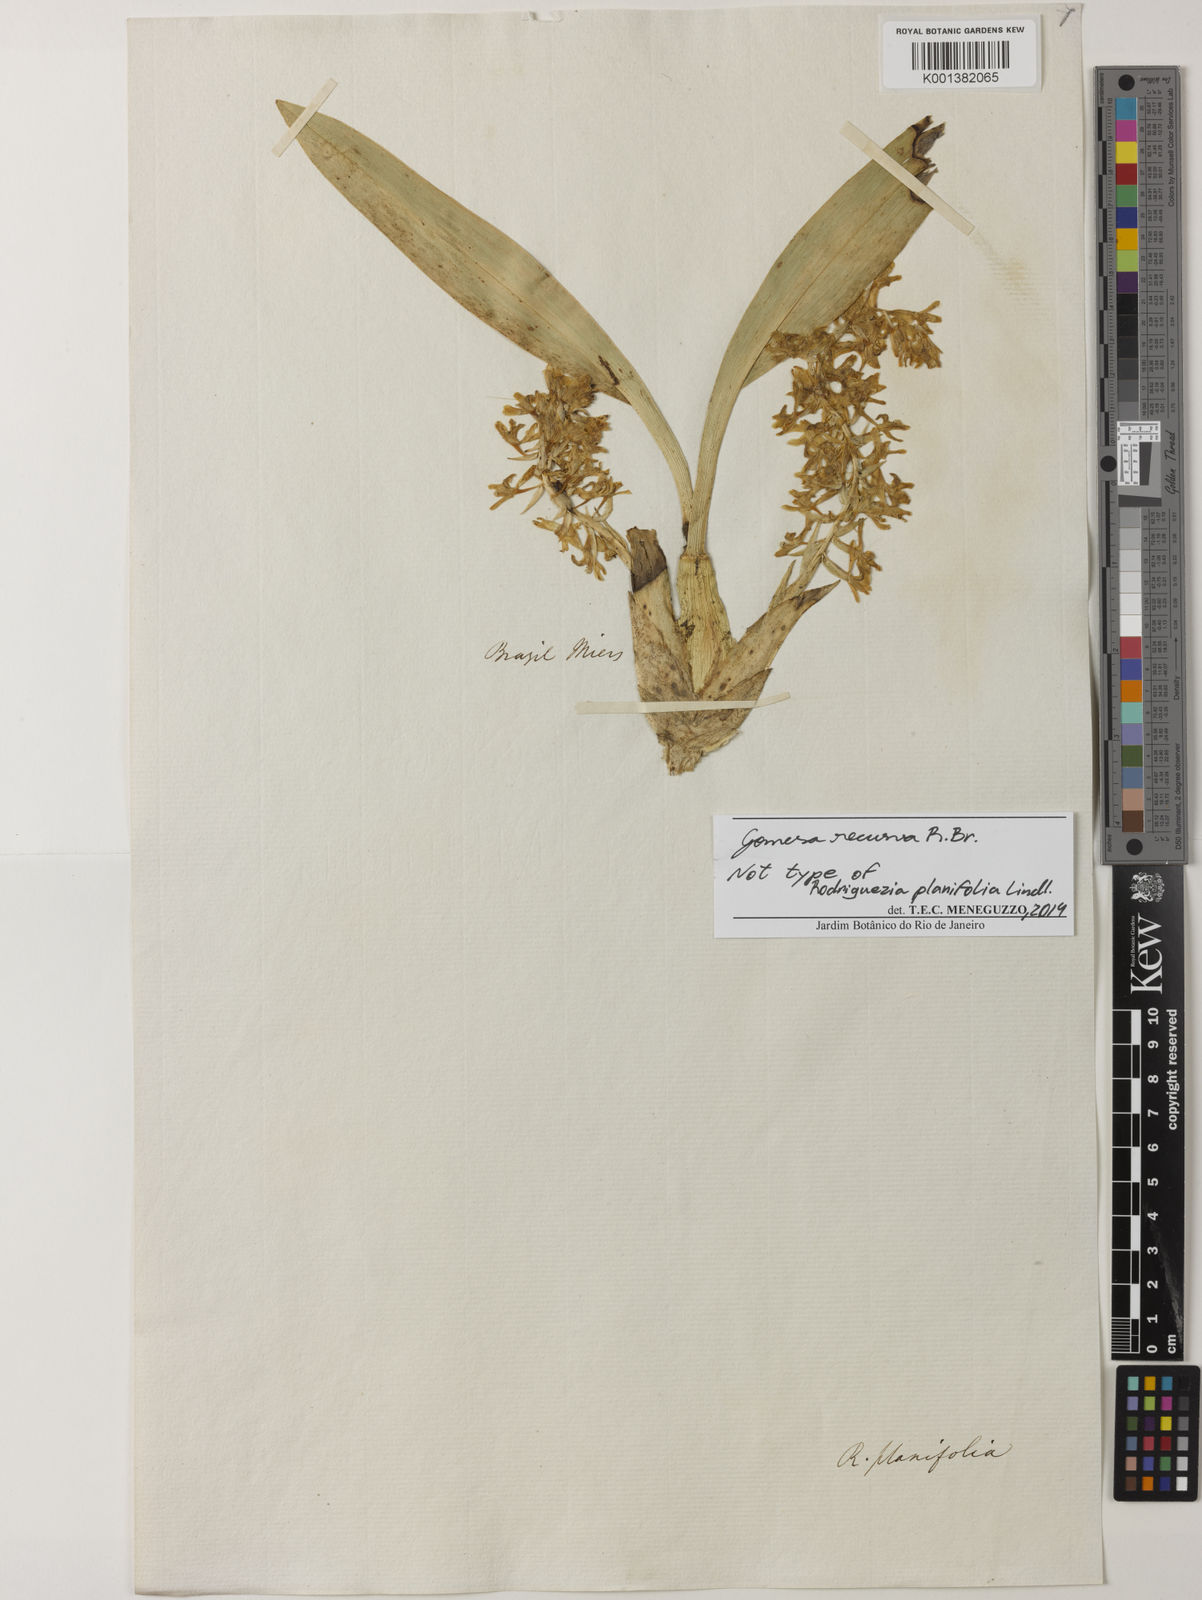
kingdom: Plantae
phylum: Tracheophyta
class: Liliopsida
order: Asparagales
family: Orchidaceae
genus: Gomesa
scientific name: Gomesa recurva
